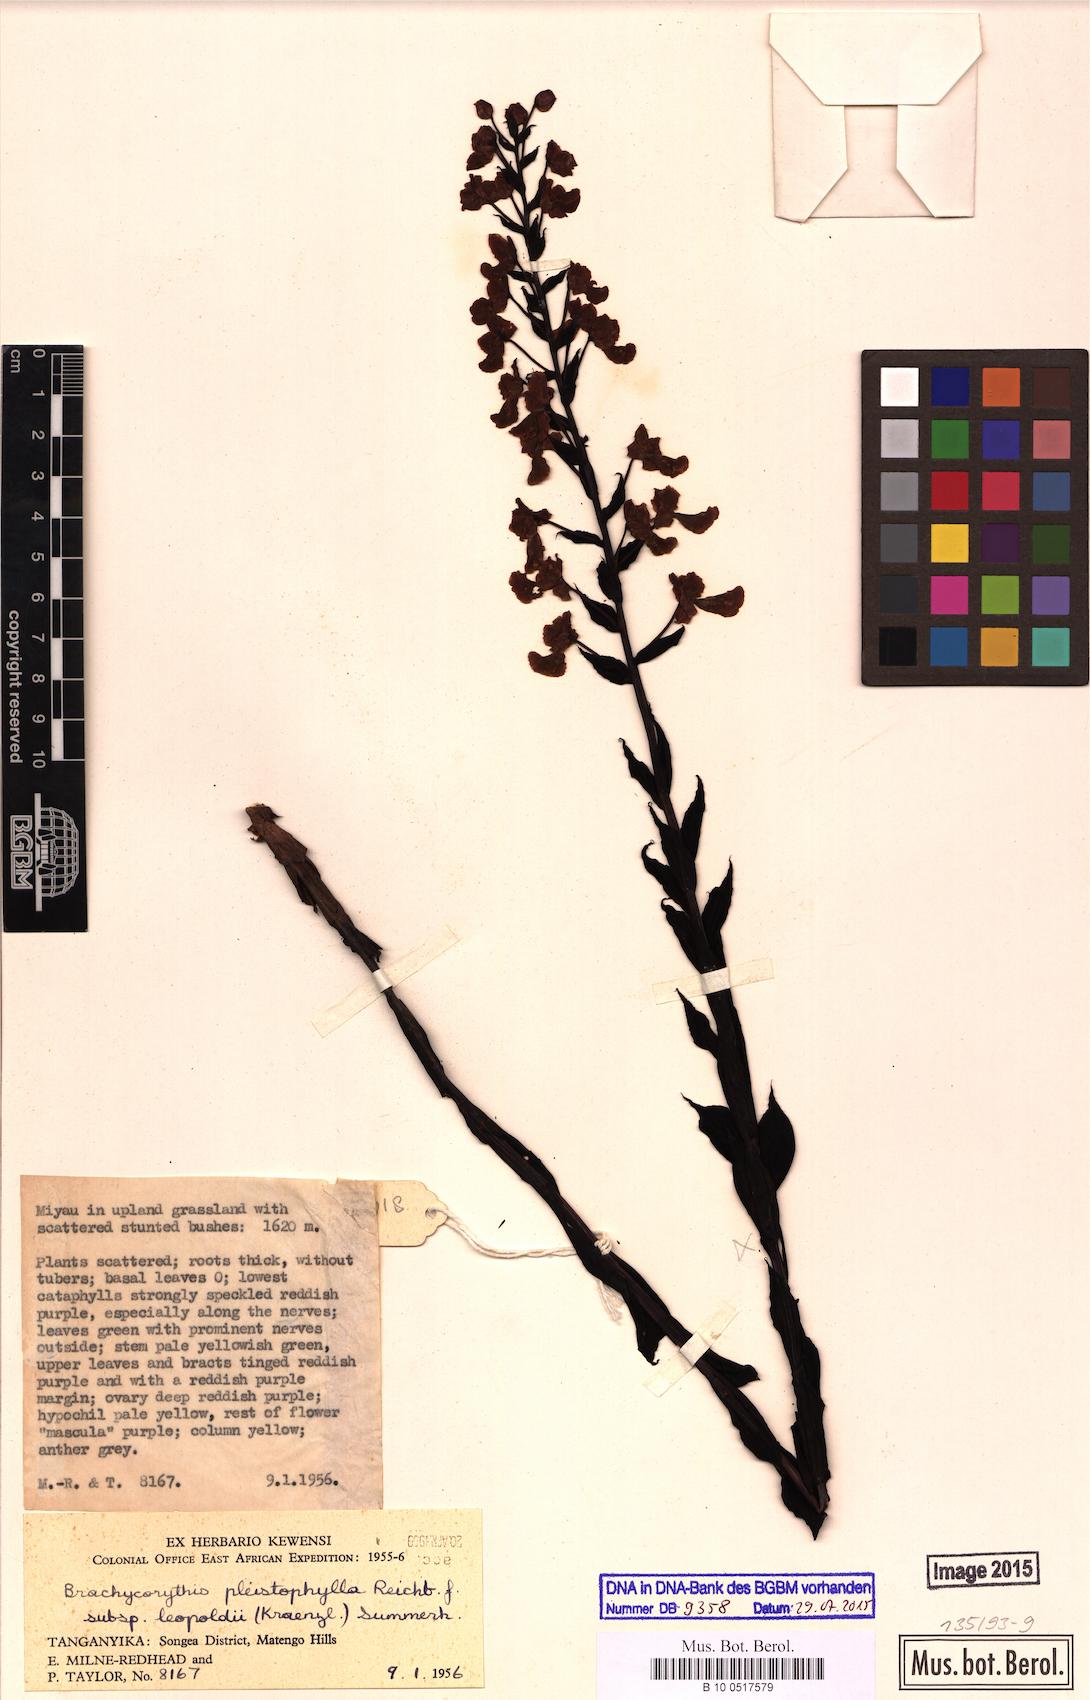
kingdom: Plantae
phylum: Tracheophyta
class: Liliopsida
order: Asparagales
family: Orchidaceae
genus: Brachycorythis
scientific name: Brachycorythis pleistophylla
